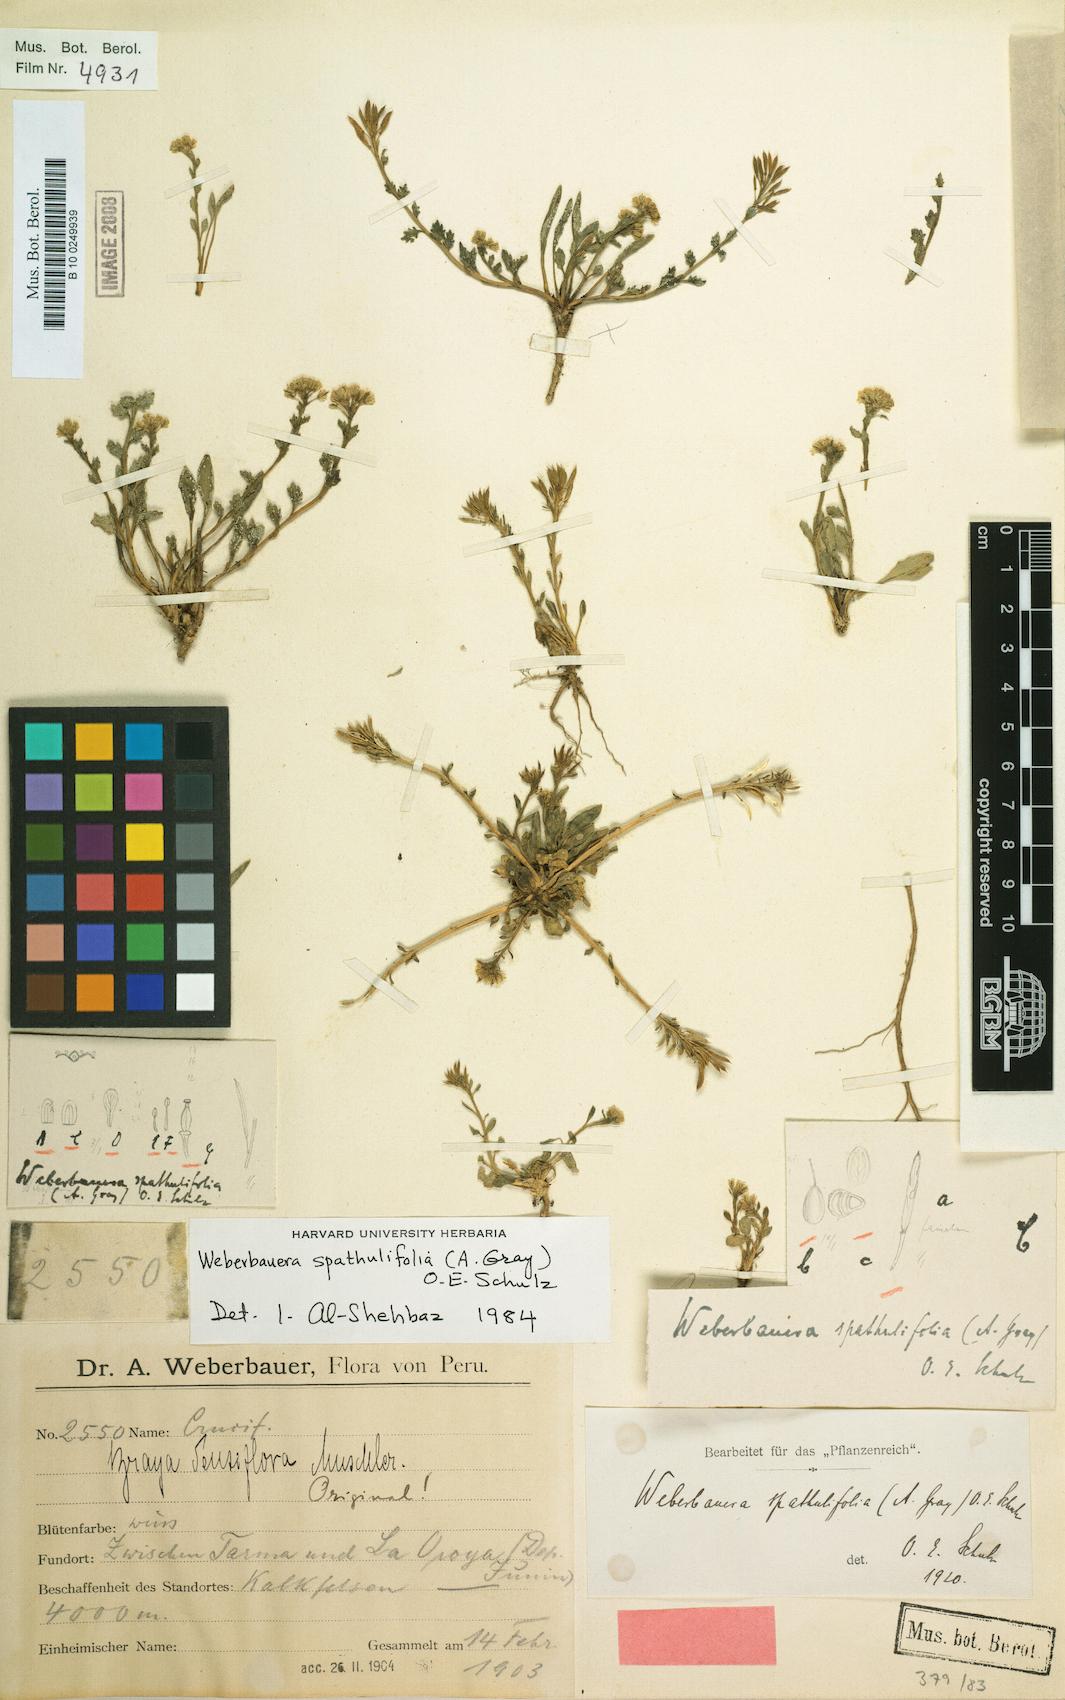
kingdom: Plantae
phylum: Tracheophyta
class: Magnoliopsida
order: Brassicales
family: Brassicaceae
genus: Weberbauera
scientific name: Weberbauera spathulifolia
